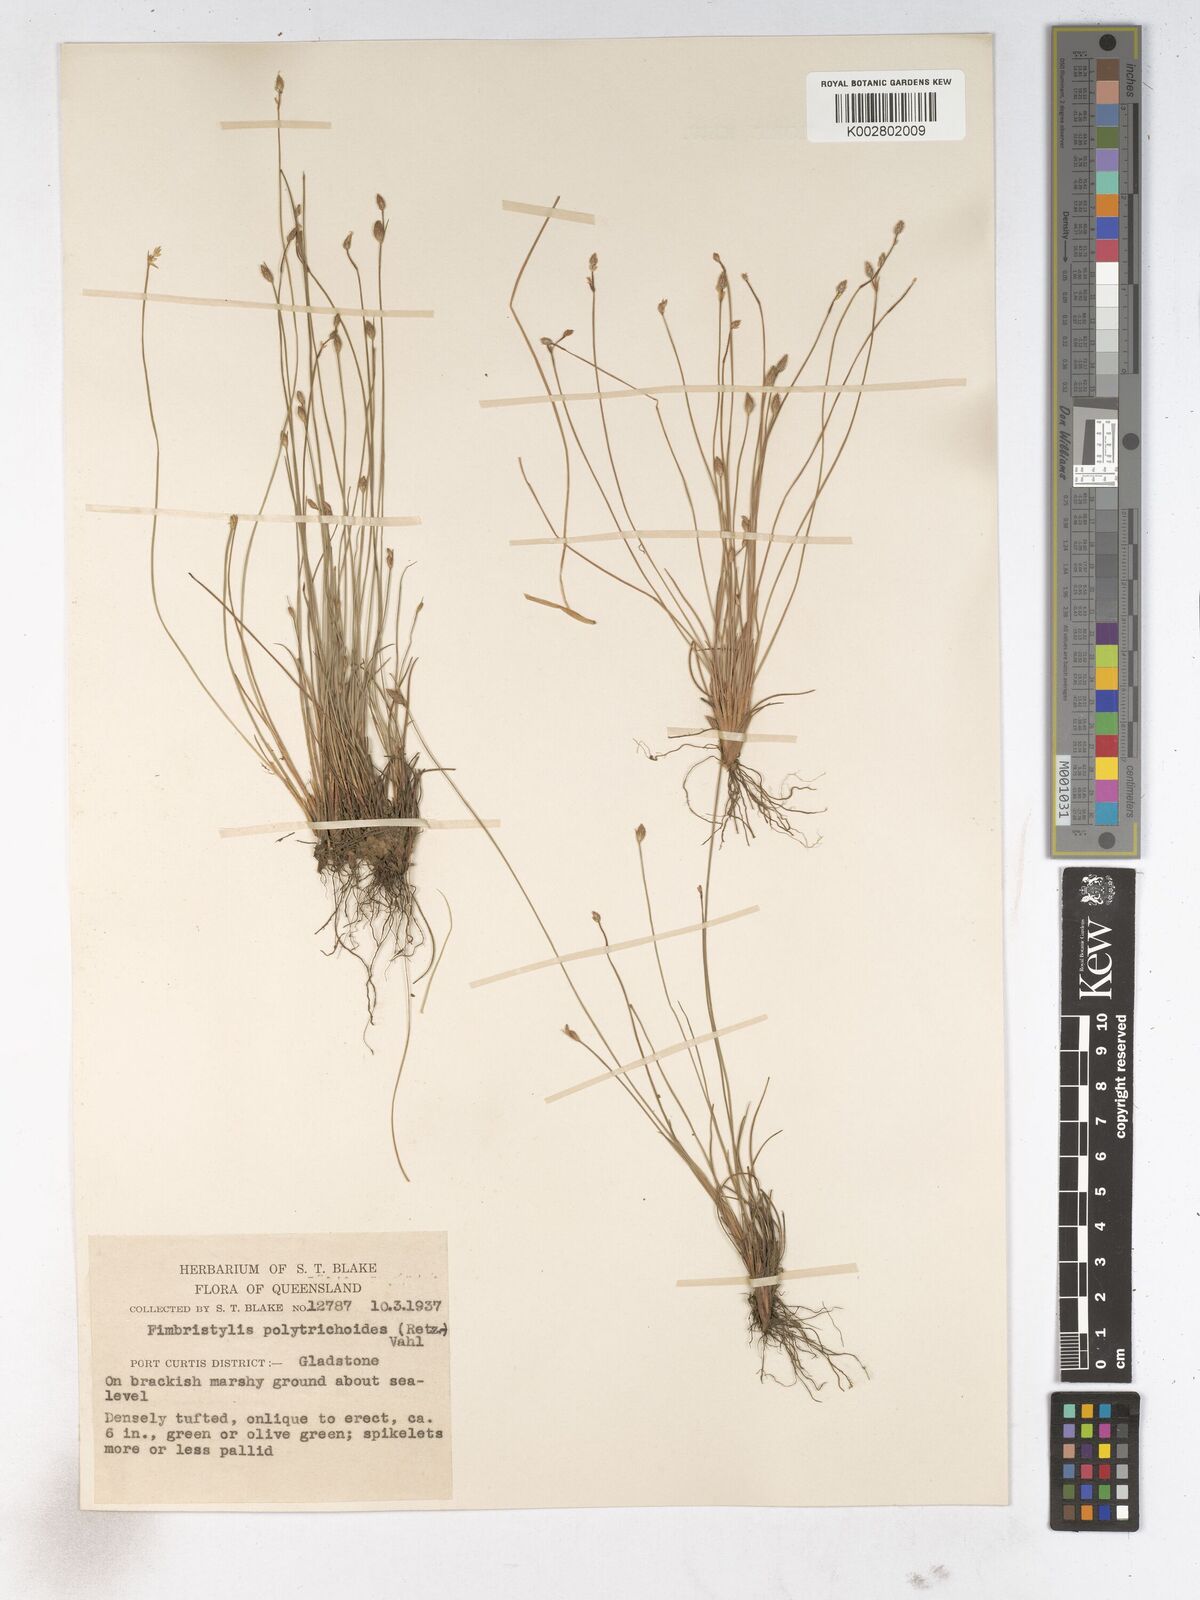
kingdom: Plantae
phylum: Tracheophyta
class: Liliopsida
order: Poales
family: Cyperaceae
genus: Fimbristylis
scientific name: Fimbristylis polytrichoides
